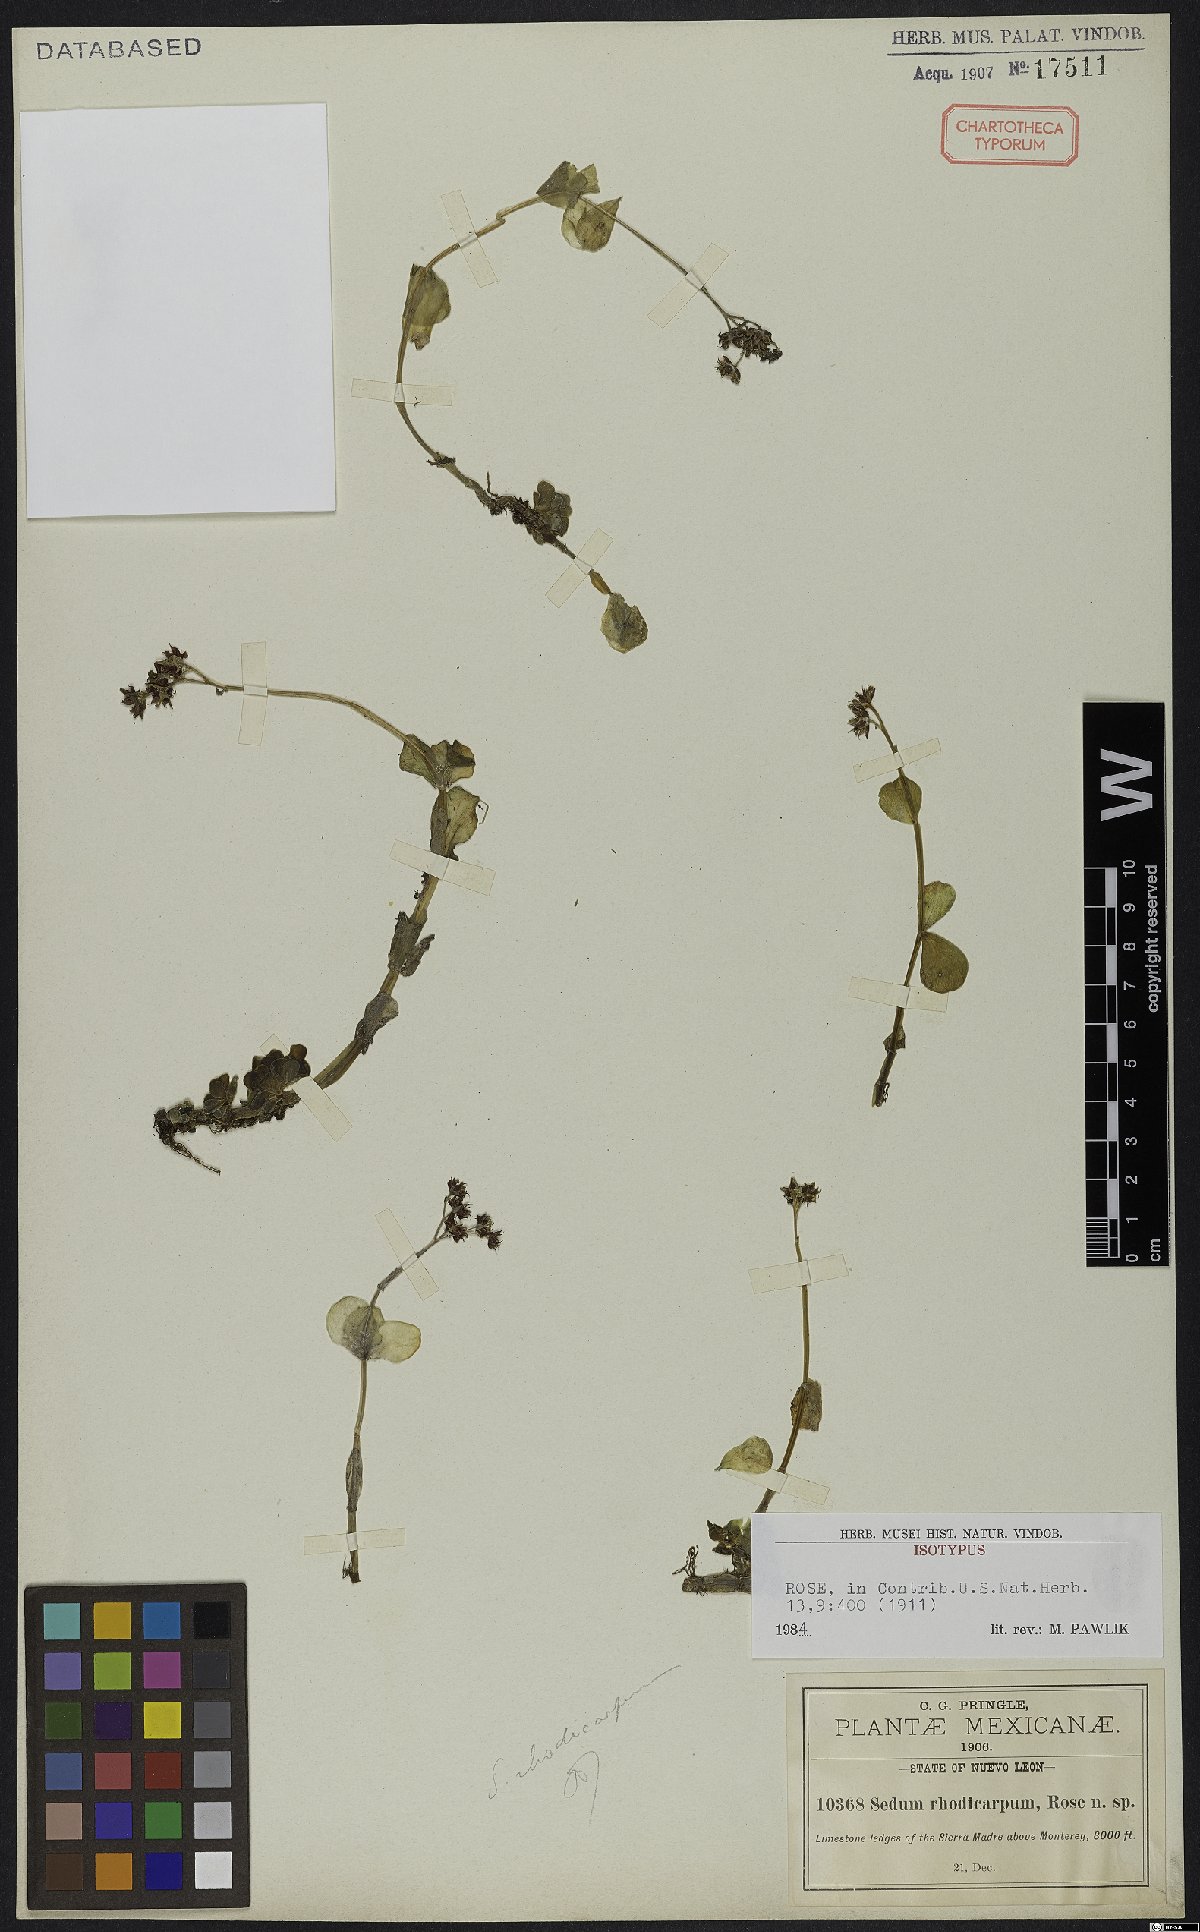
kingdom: Plantae
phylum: Tracheophyta
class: Magnoliopsida
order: Saxifragales
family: Crassulaceae
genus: Sedum
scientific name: Sedum rhodocarpum
